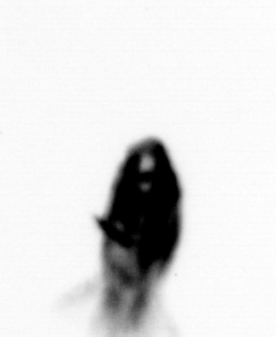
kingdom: Animalia
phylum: Arthropoda
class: Maxillopoda
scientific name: Maxillopoda
